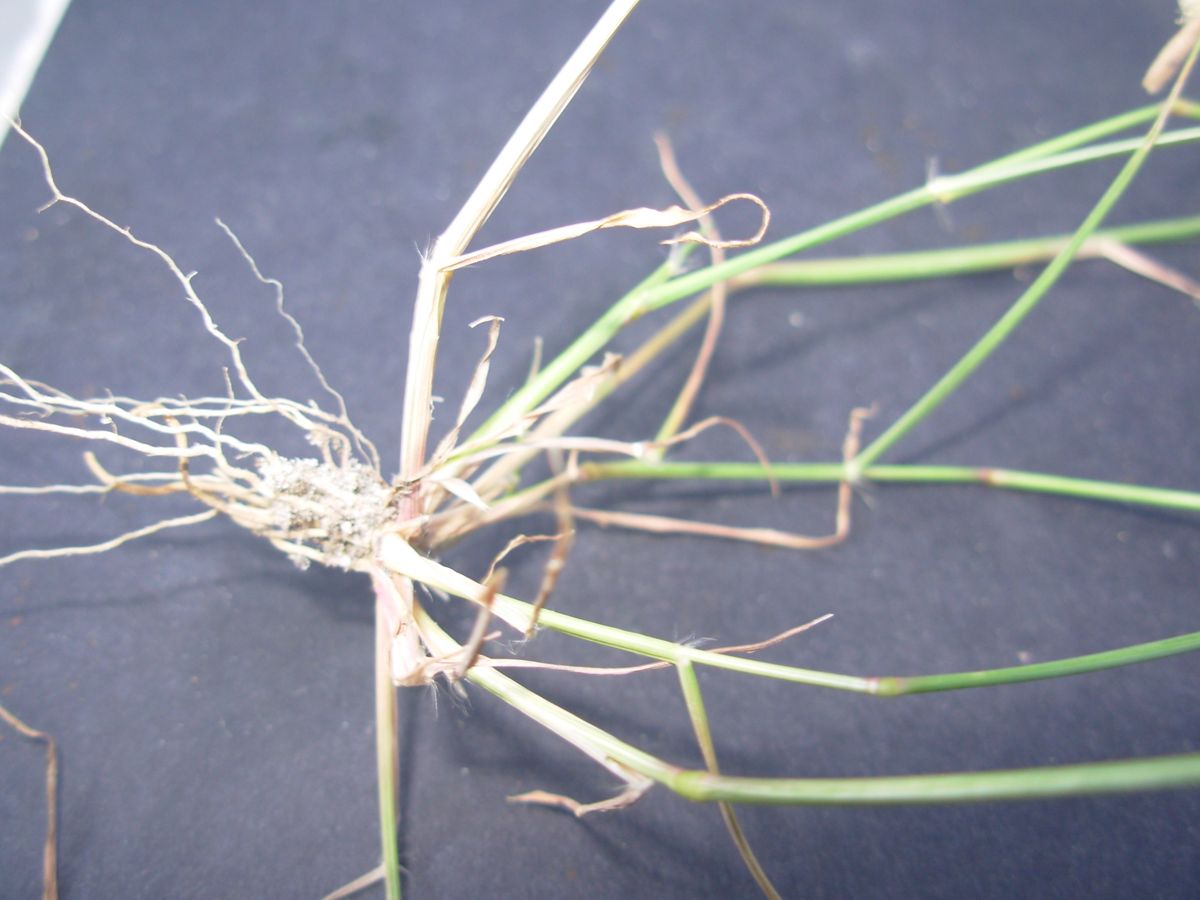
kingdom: Plantae
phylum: Tracheophyta
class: Liliopsida
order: Poales
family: Poaceae
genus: Eragrostis
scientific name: Eragrostis mexicana
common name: Mexican love grass
